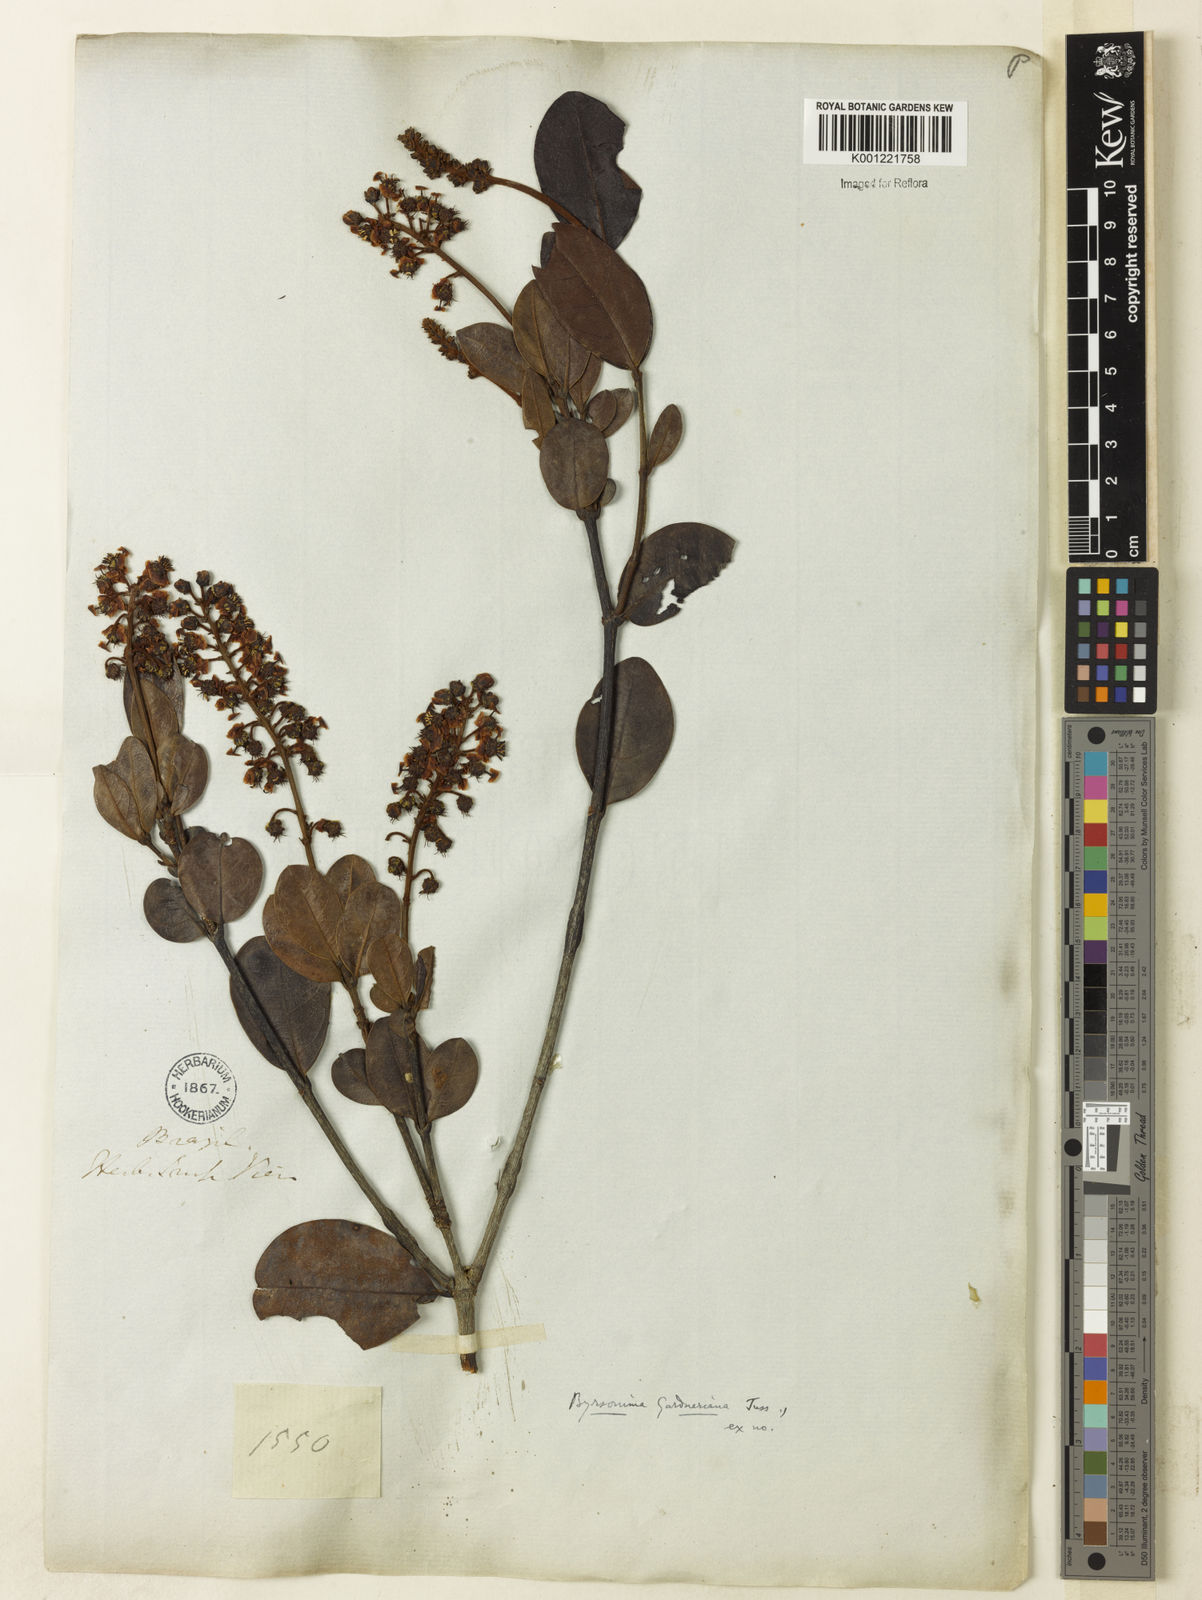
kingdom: Plantae
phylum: Tracheophyta
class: Magnoliopsida
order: Malpighiales
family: Malpighiaceae
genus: Byrsonima
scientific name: Byrsonima gardneriana
